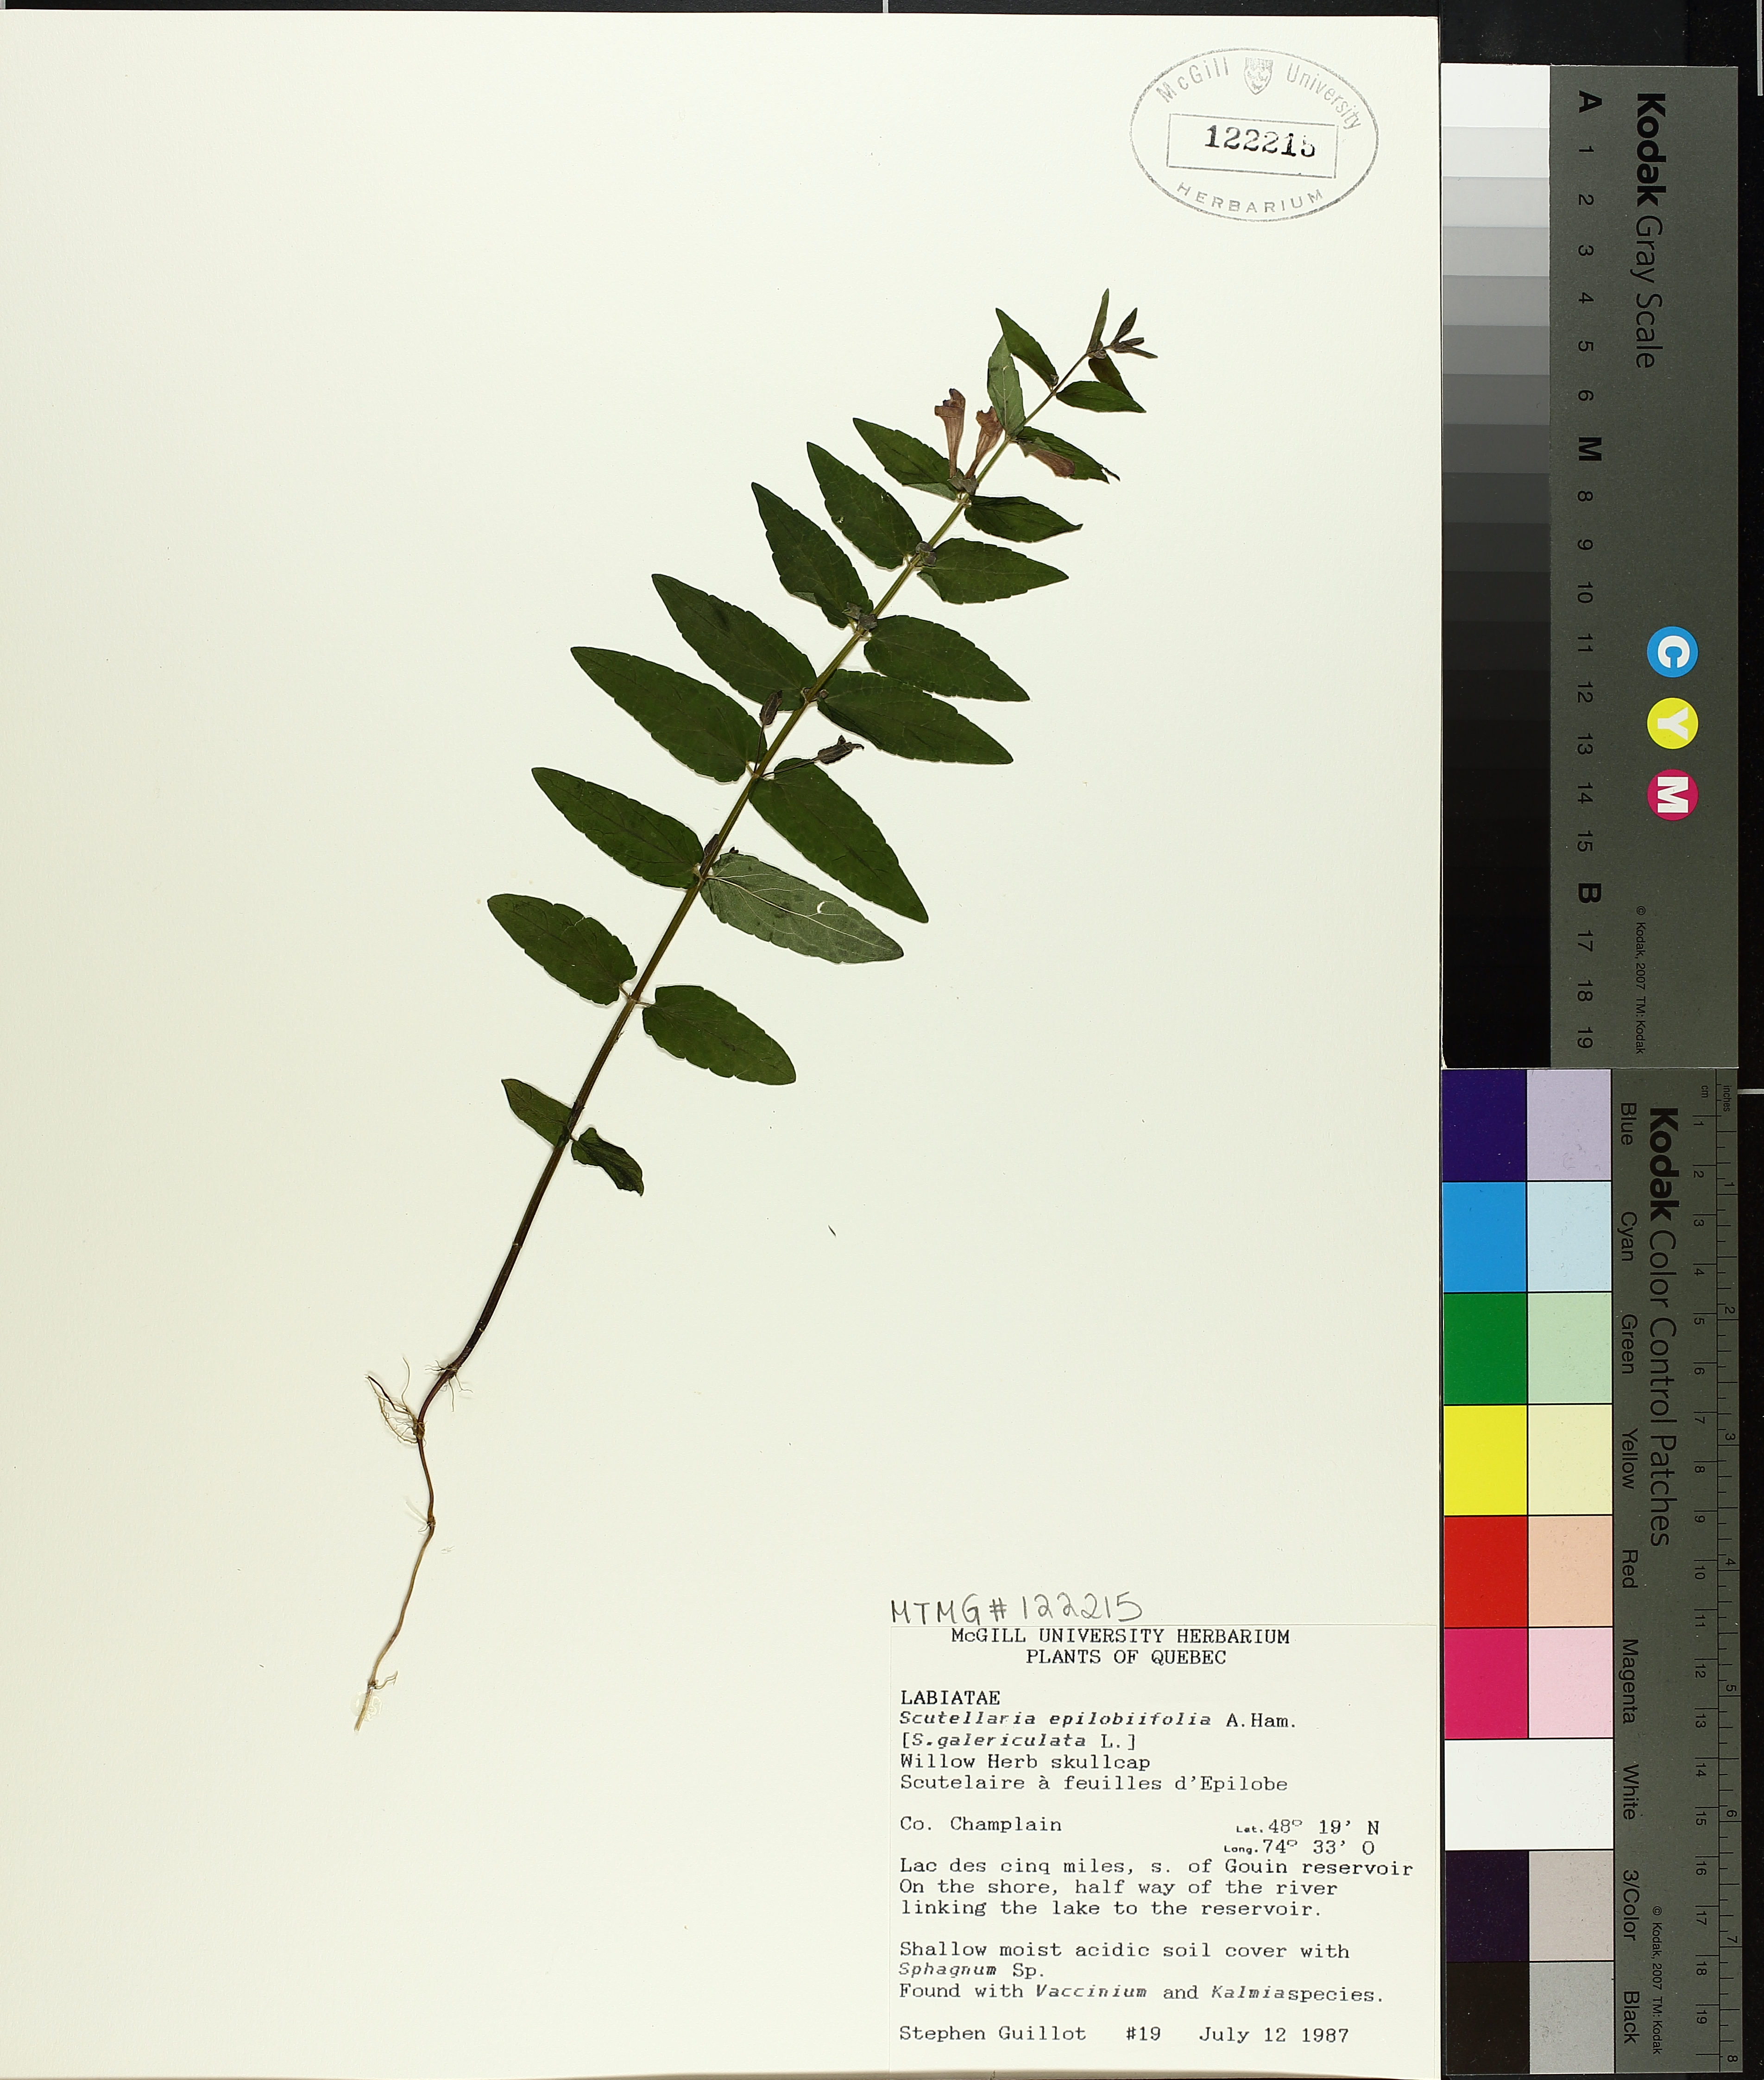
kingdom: Plantae
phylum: Tracheophyta
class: Magnoliopsida
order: Lamiales
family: Lamiaceae
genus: Scutellaria
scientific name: Scutellaria galericulata
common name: Skullcap
